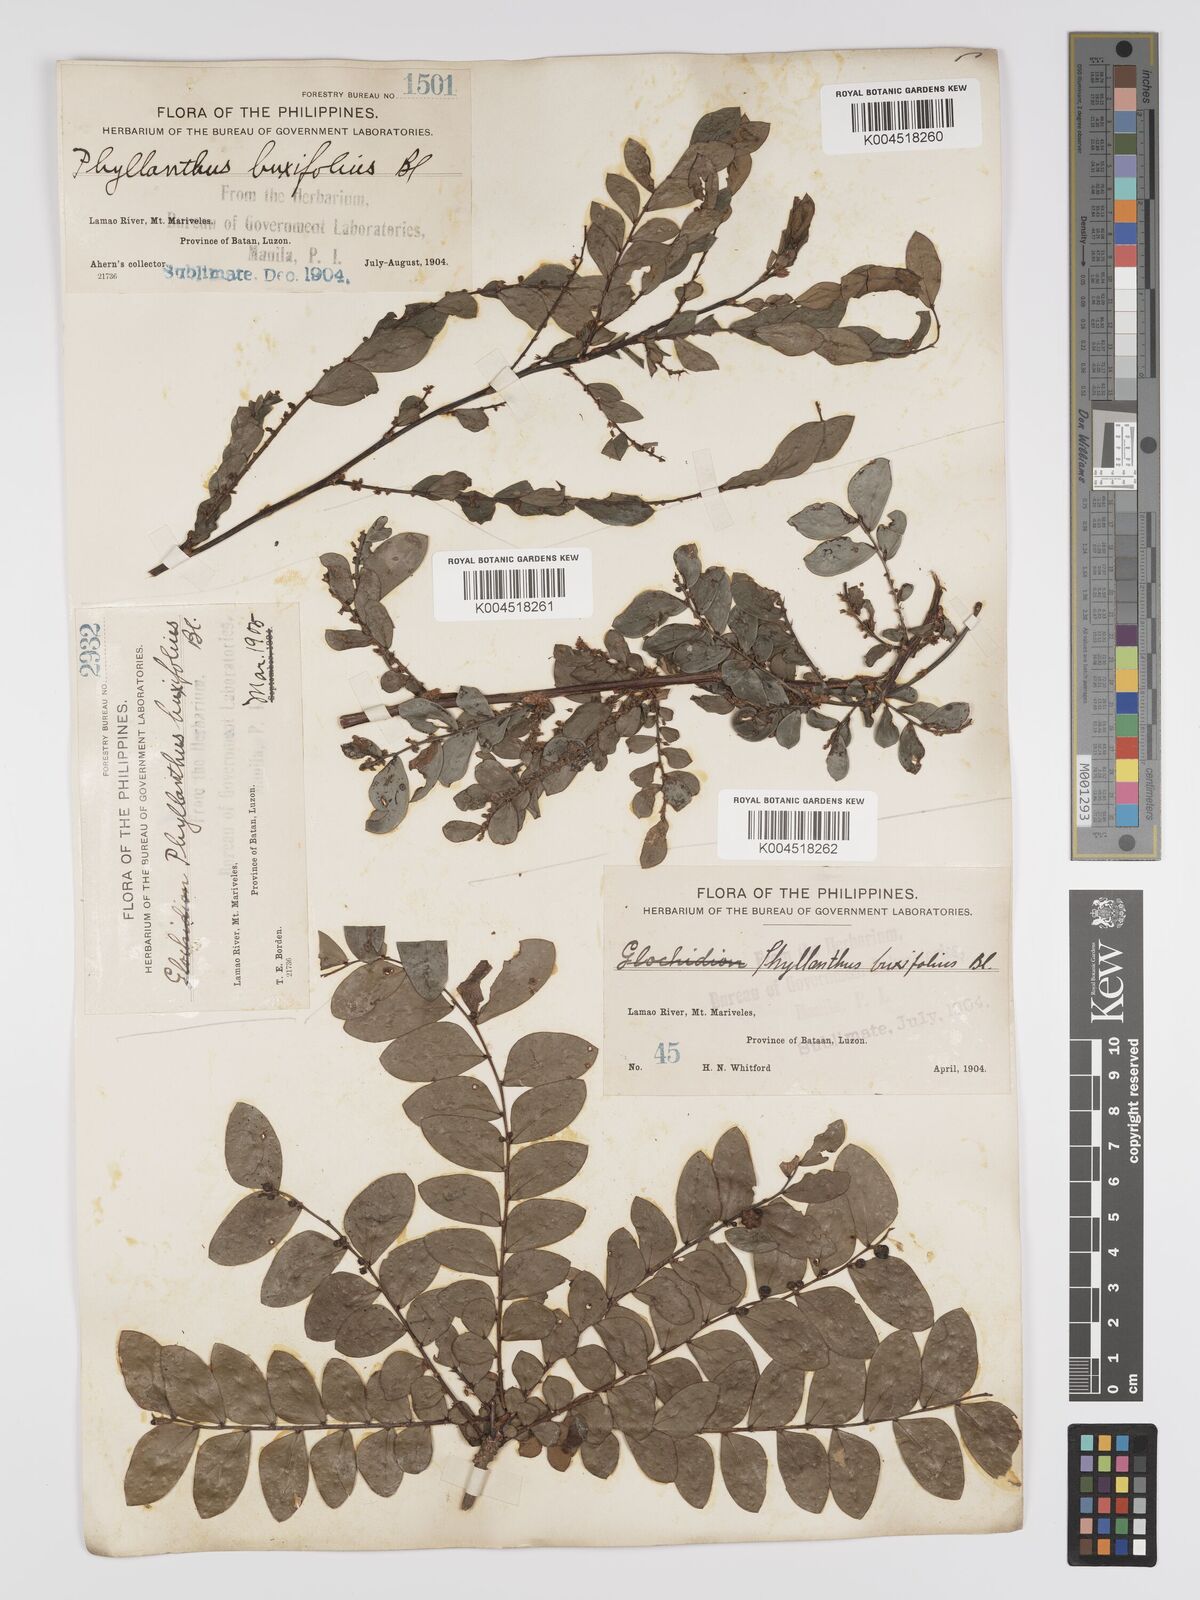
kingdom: Plantae
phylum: Tracheophyta
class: Magnoliopsida
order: Malpighiales
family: Phyllanthaceae
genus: Phyllanthus
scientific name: Phyllanthus buxifolius
